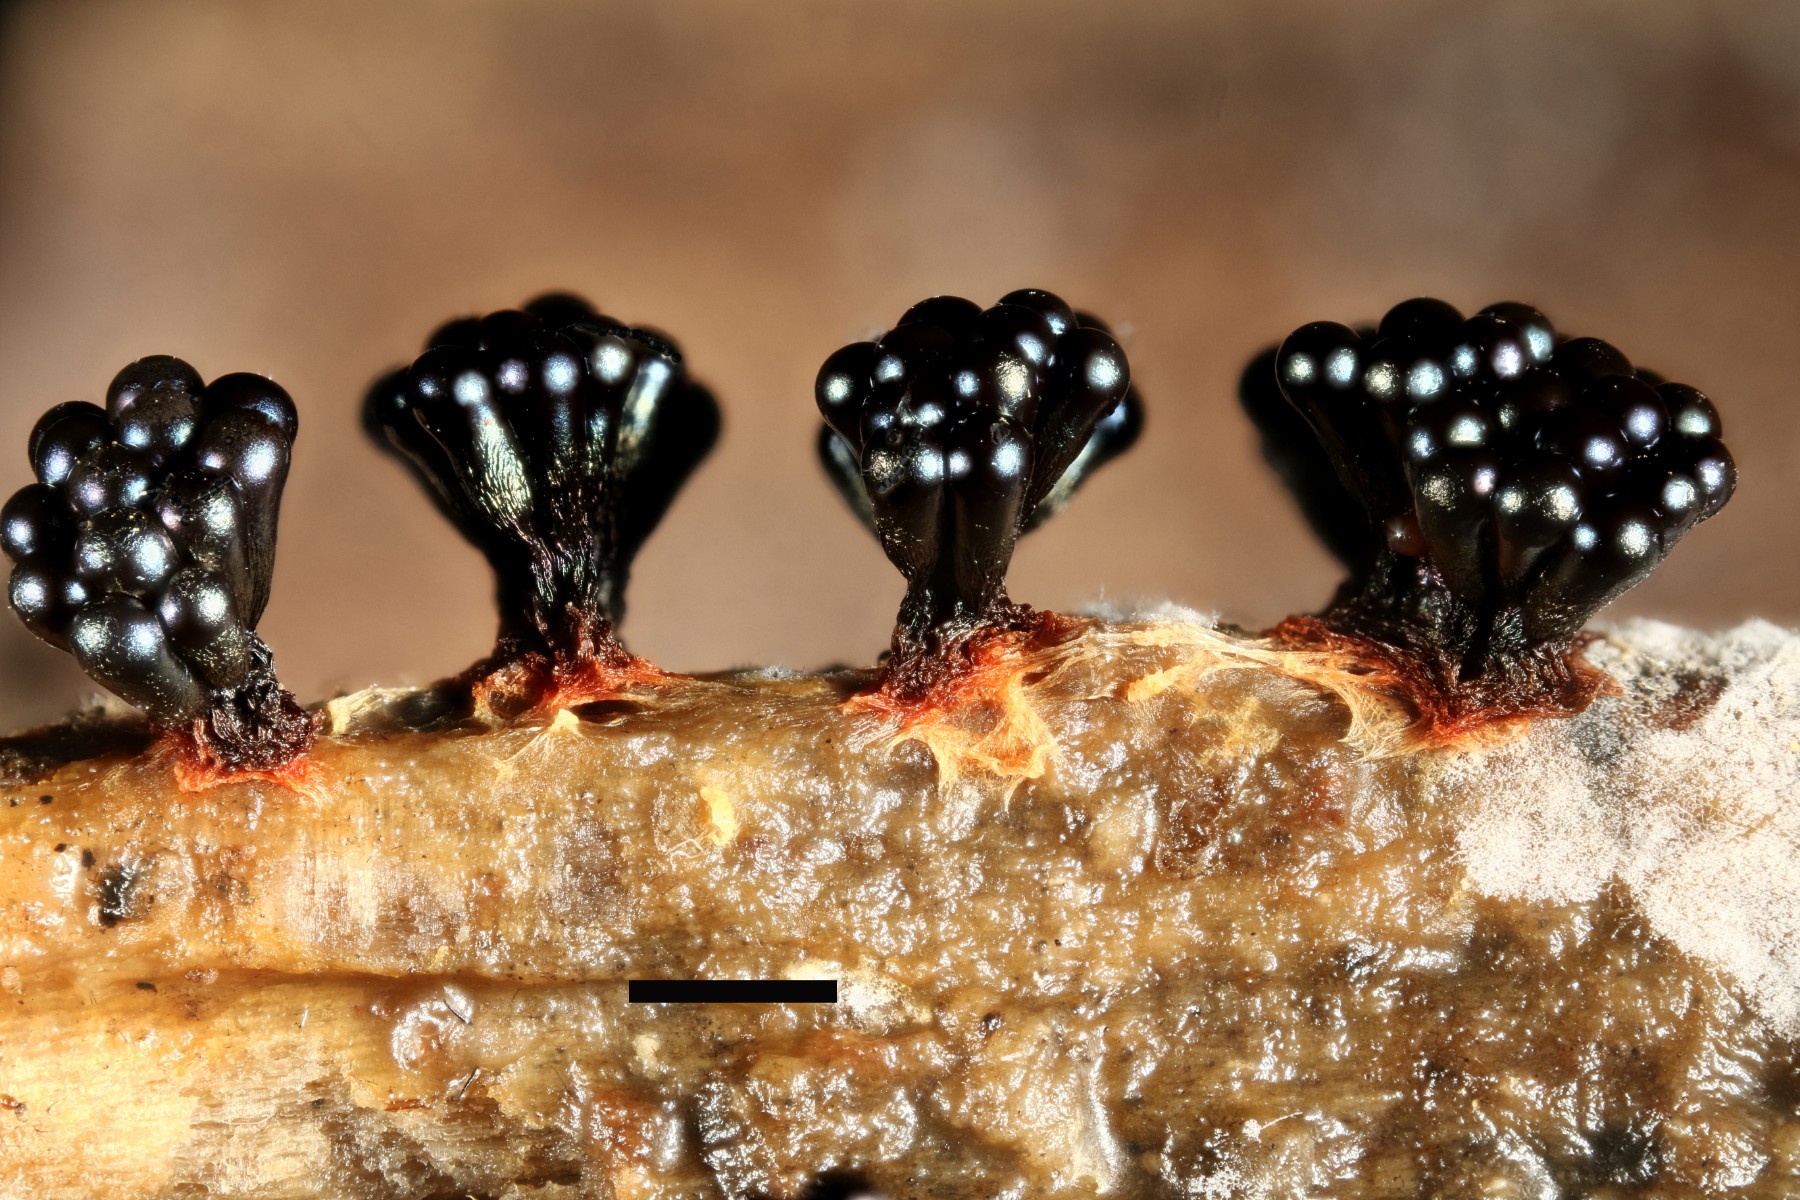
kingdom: Protozoa
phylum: Mycetozoa
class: Myxomycetes
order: Trichiales
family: Trichiaceae
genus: Metatrichia
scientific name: Metatrichia vesparia
